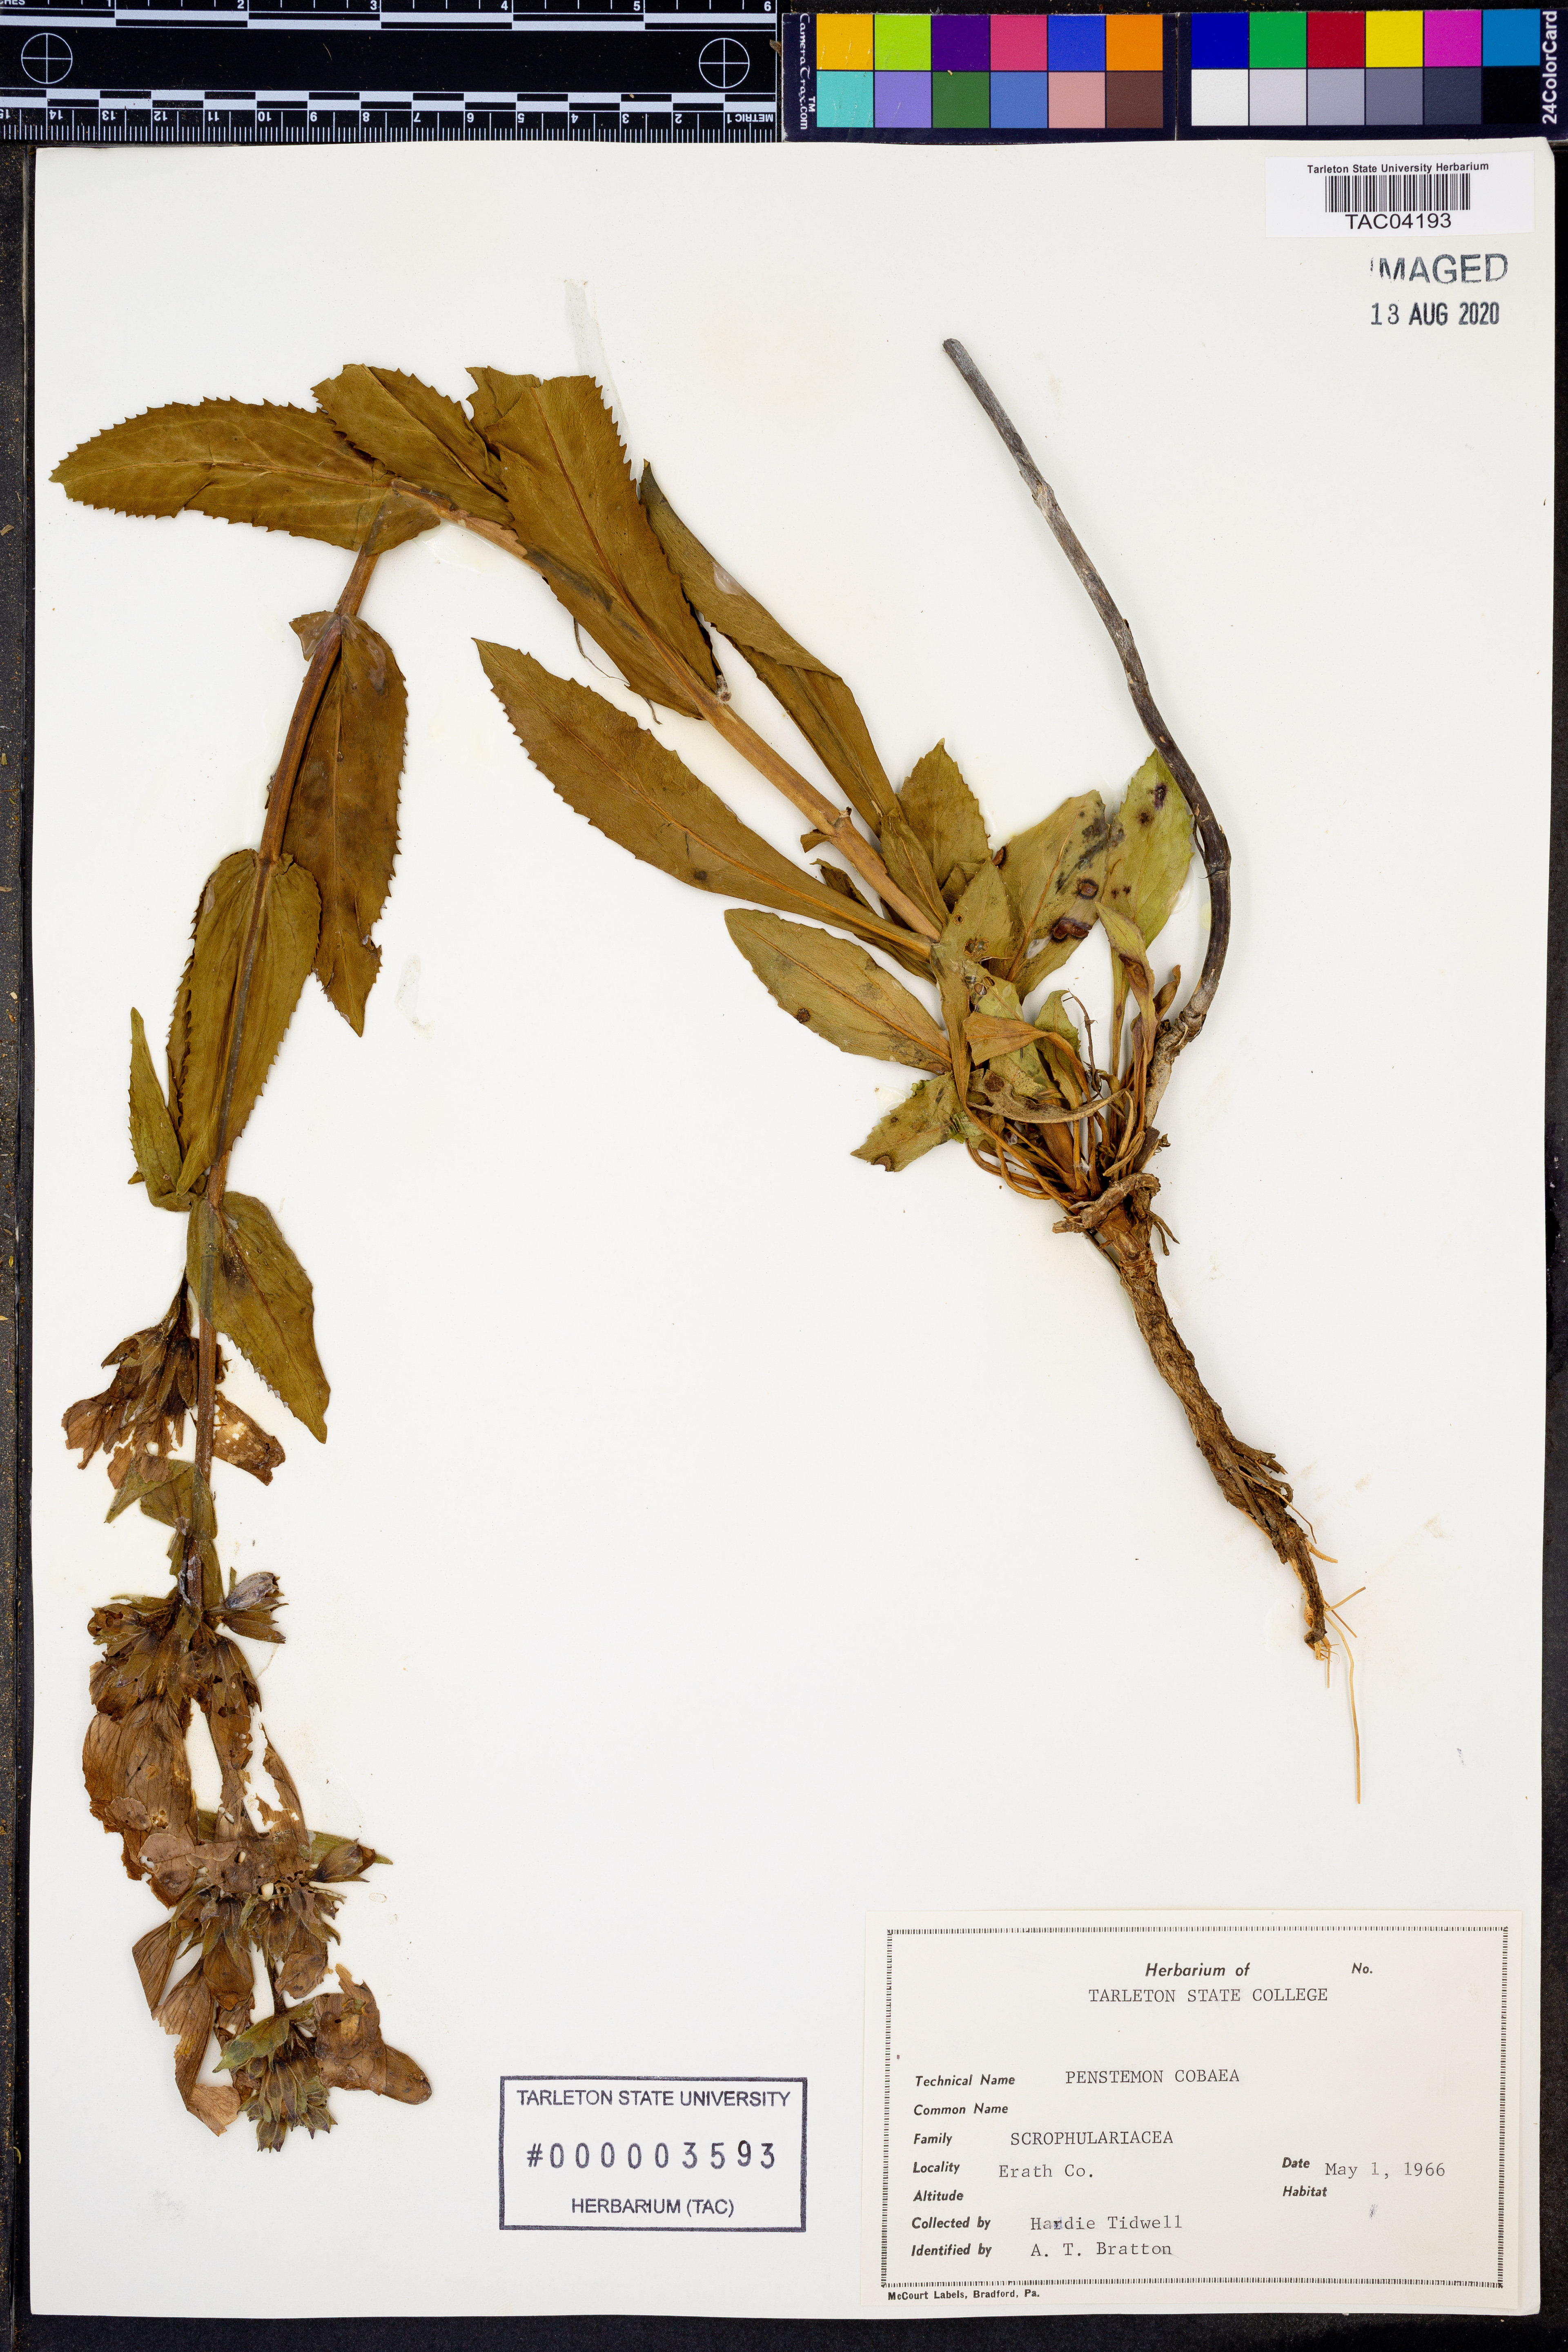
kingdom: Plantae
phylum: Tracheophyta
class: Magnoliopsida
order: Lamiales
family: Plantaginaceae
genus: Penstemon
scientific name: Penstemon cobaea
